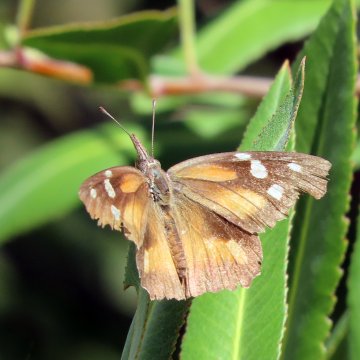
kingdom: Animalia
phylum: Arthropoda
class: Insecta
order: Lepidoptera
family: Nymphalidae
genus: Libytheana
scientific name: Libytheana carinenta
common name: American Snout
